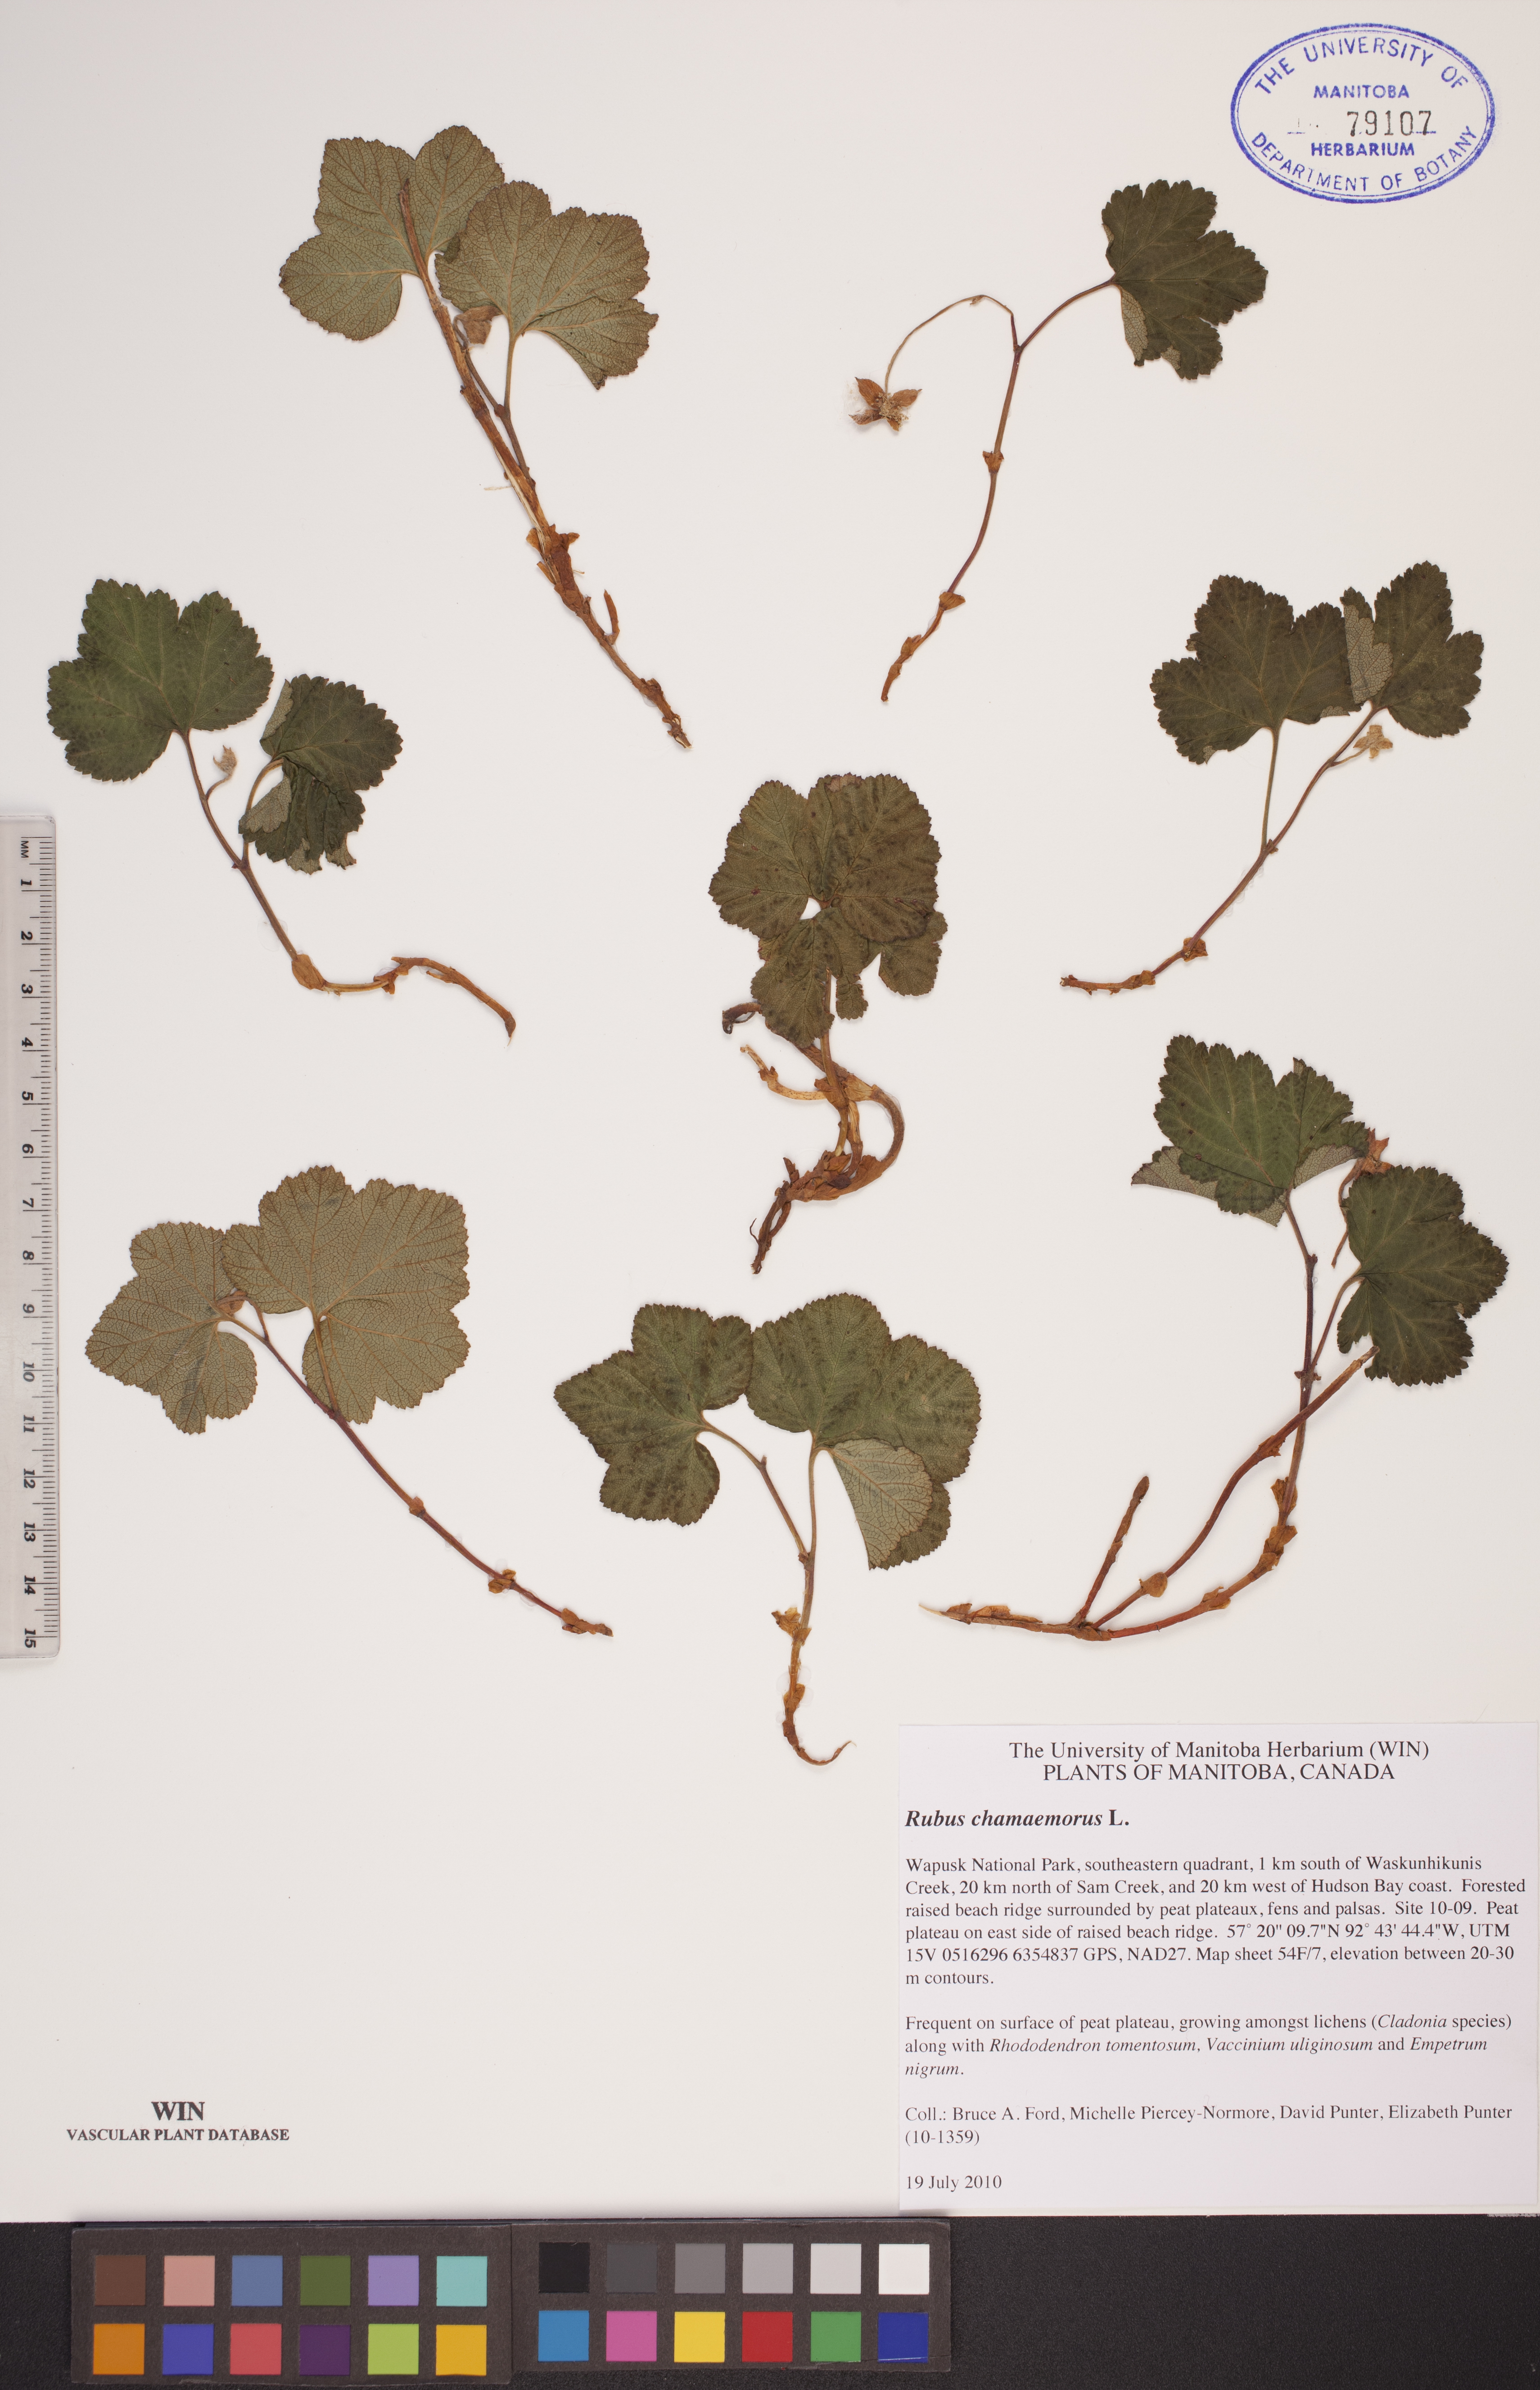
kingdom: Plantae
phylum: Tracheophyta
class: Magnoliopsida
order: Rosales
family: Rosaceae
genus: Rubus
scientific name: Rubus chamaemorus
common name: Cloudberry
